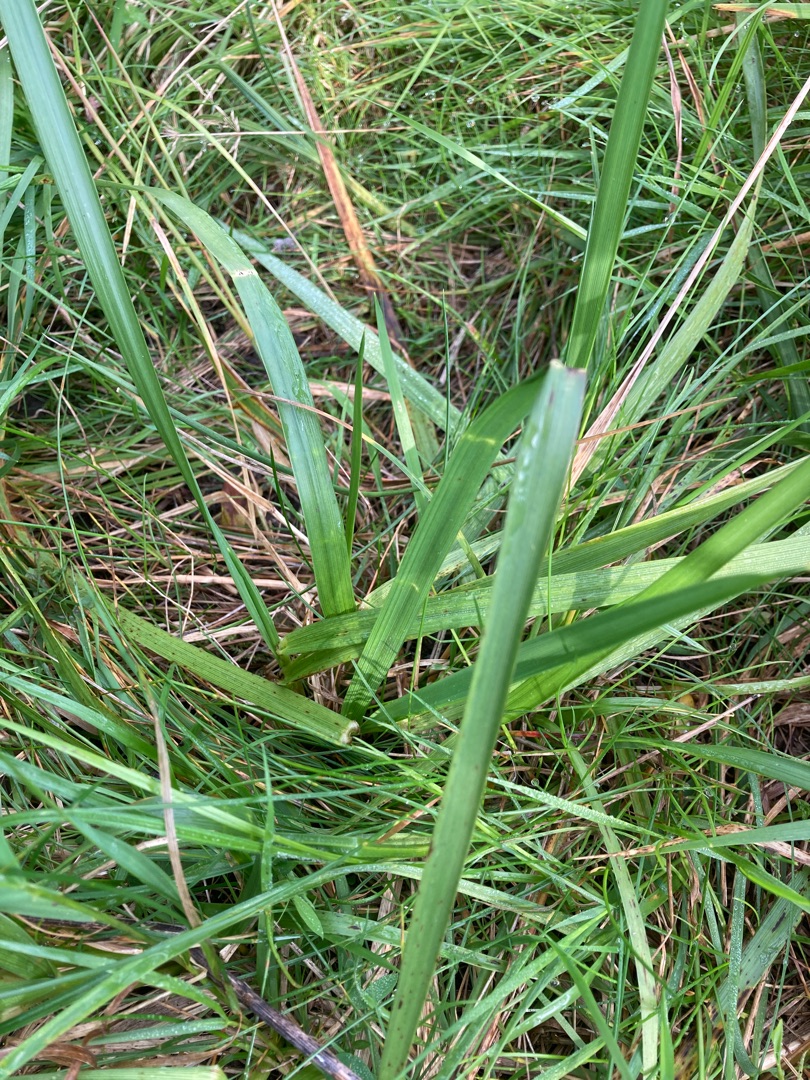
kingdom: Plantae
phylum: Tracheophyta
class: Liliopsida
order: Poales
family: Poaceae
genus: Lolium
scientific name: Lolium arundinaceum
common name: Strand-svingel
